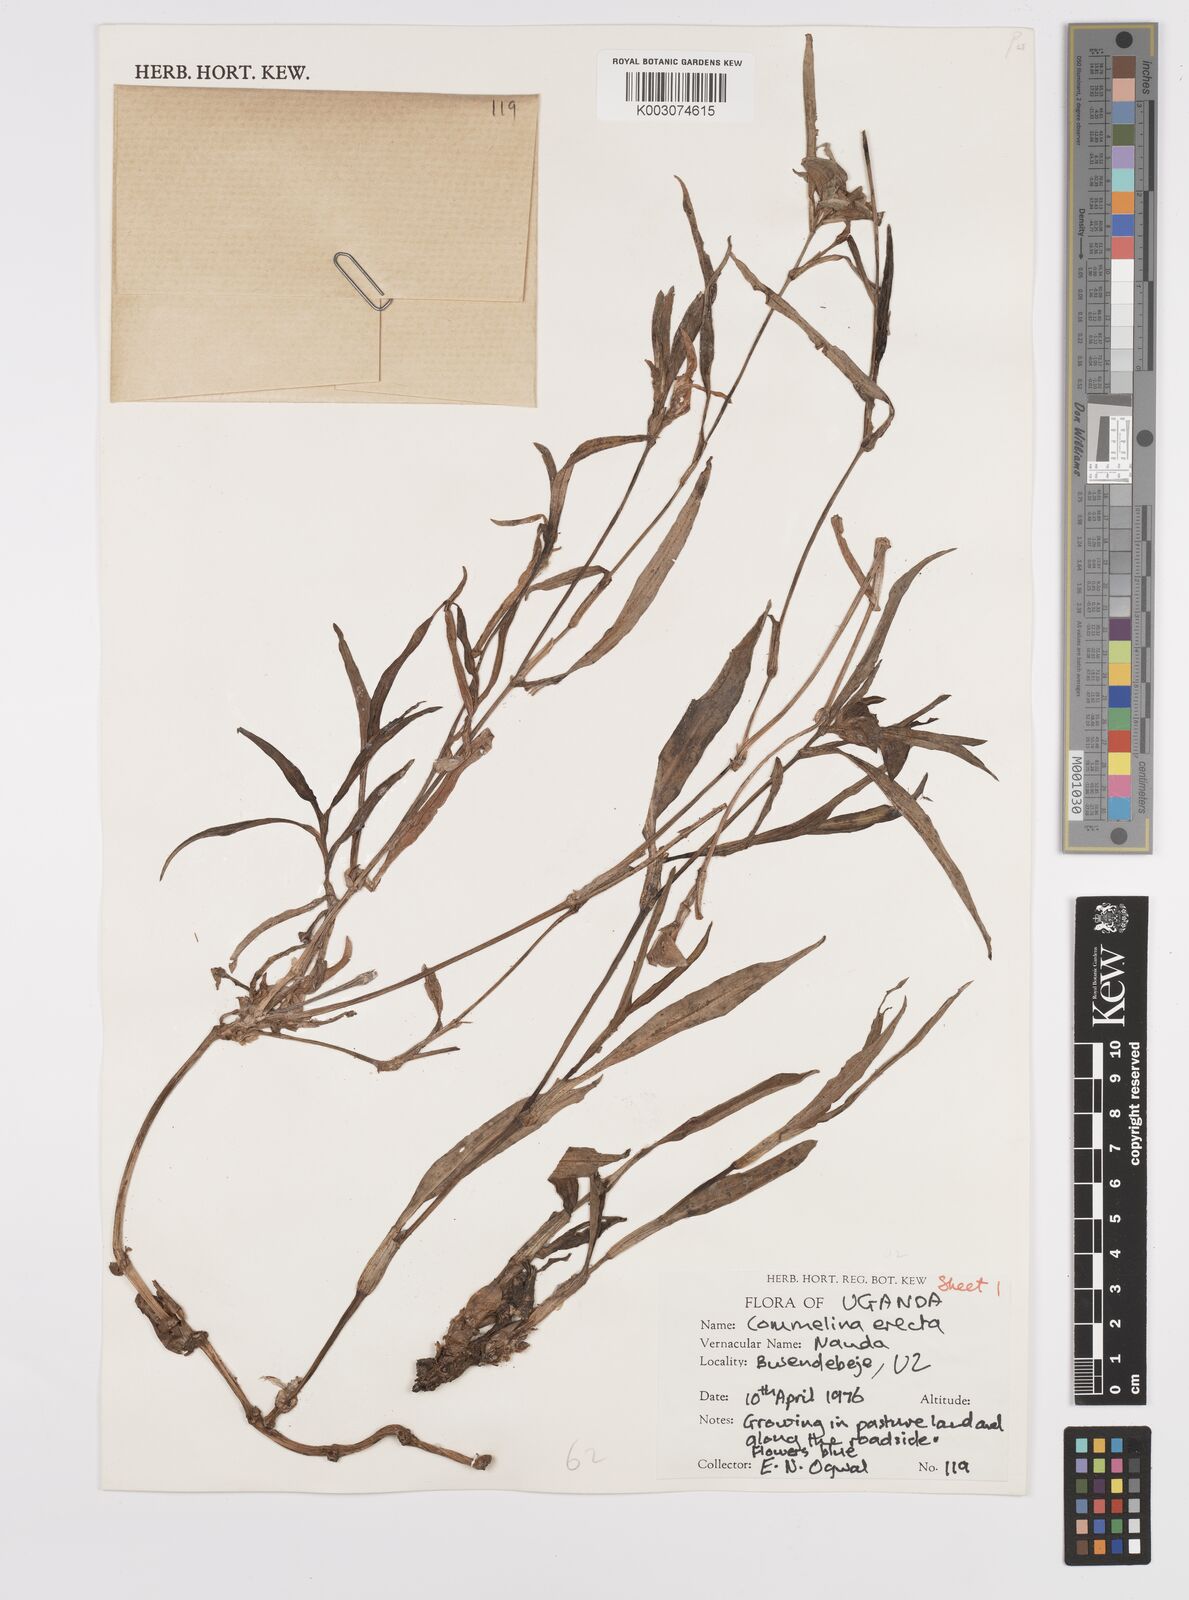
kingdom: Plantae
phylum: Tracheophyta
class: Liliopsida
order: Commelinales
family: Commelinaceae
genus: Commelina
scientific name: Commelina erecta
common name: Blousel blommetjie
